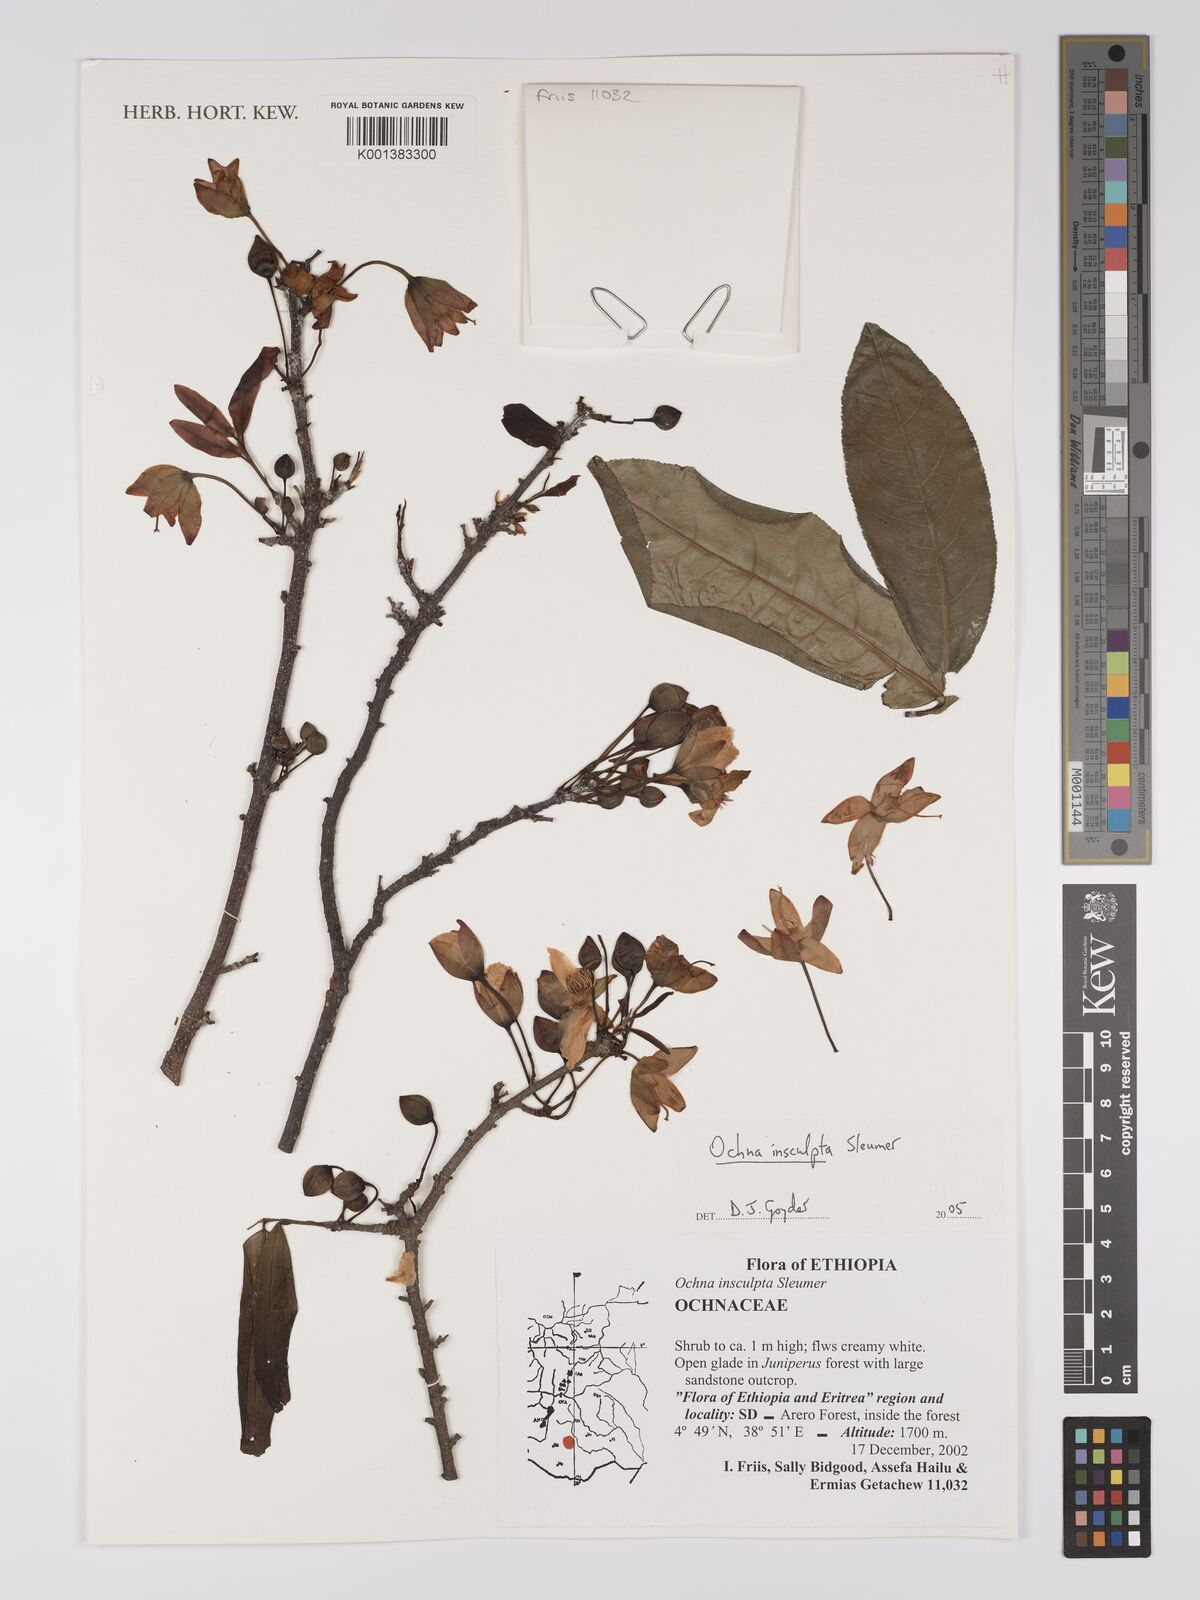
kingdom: Plantae
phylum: Tracheophyta
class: Magnoliopsida
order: Malpighiales
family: Ochnaceae
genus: Ochna
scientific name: Ochna insculpta
